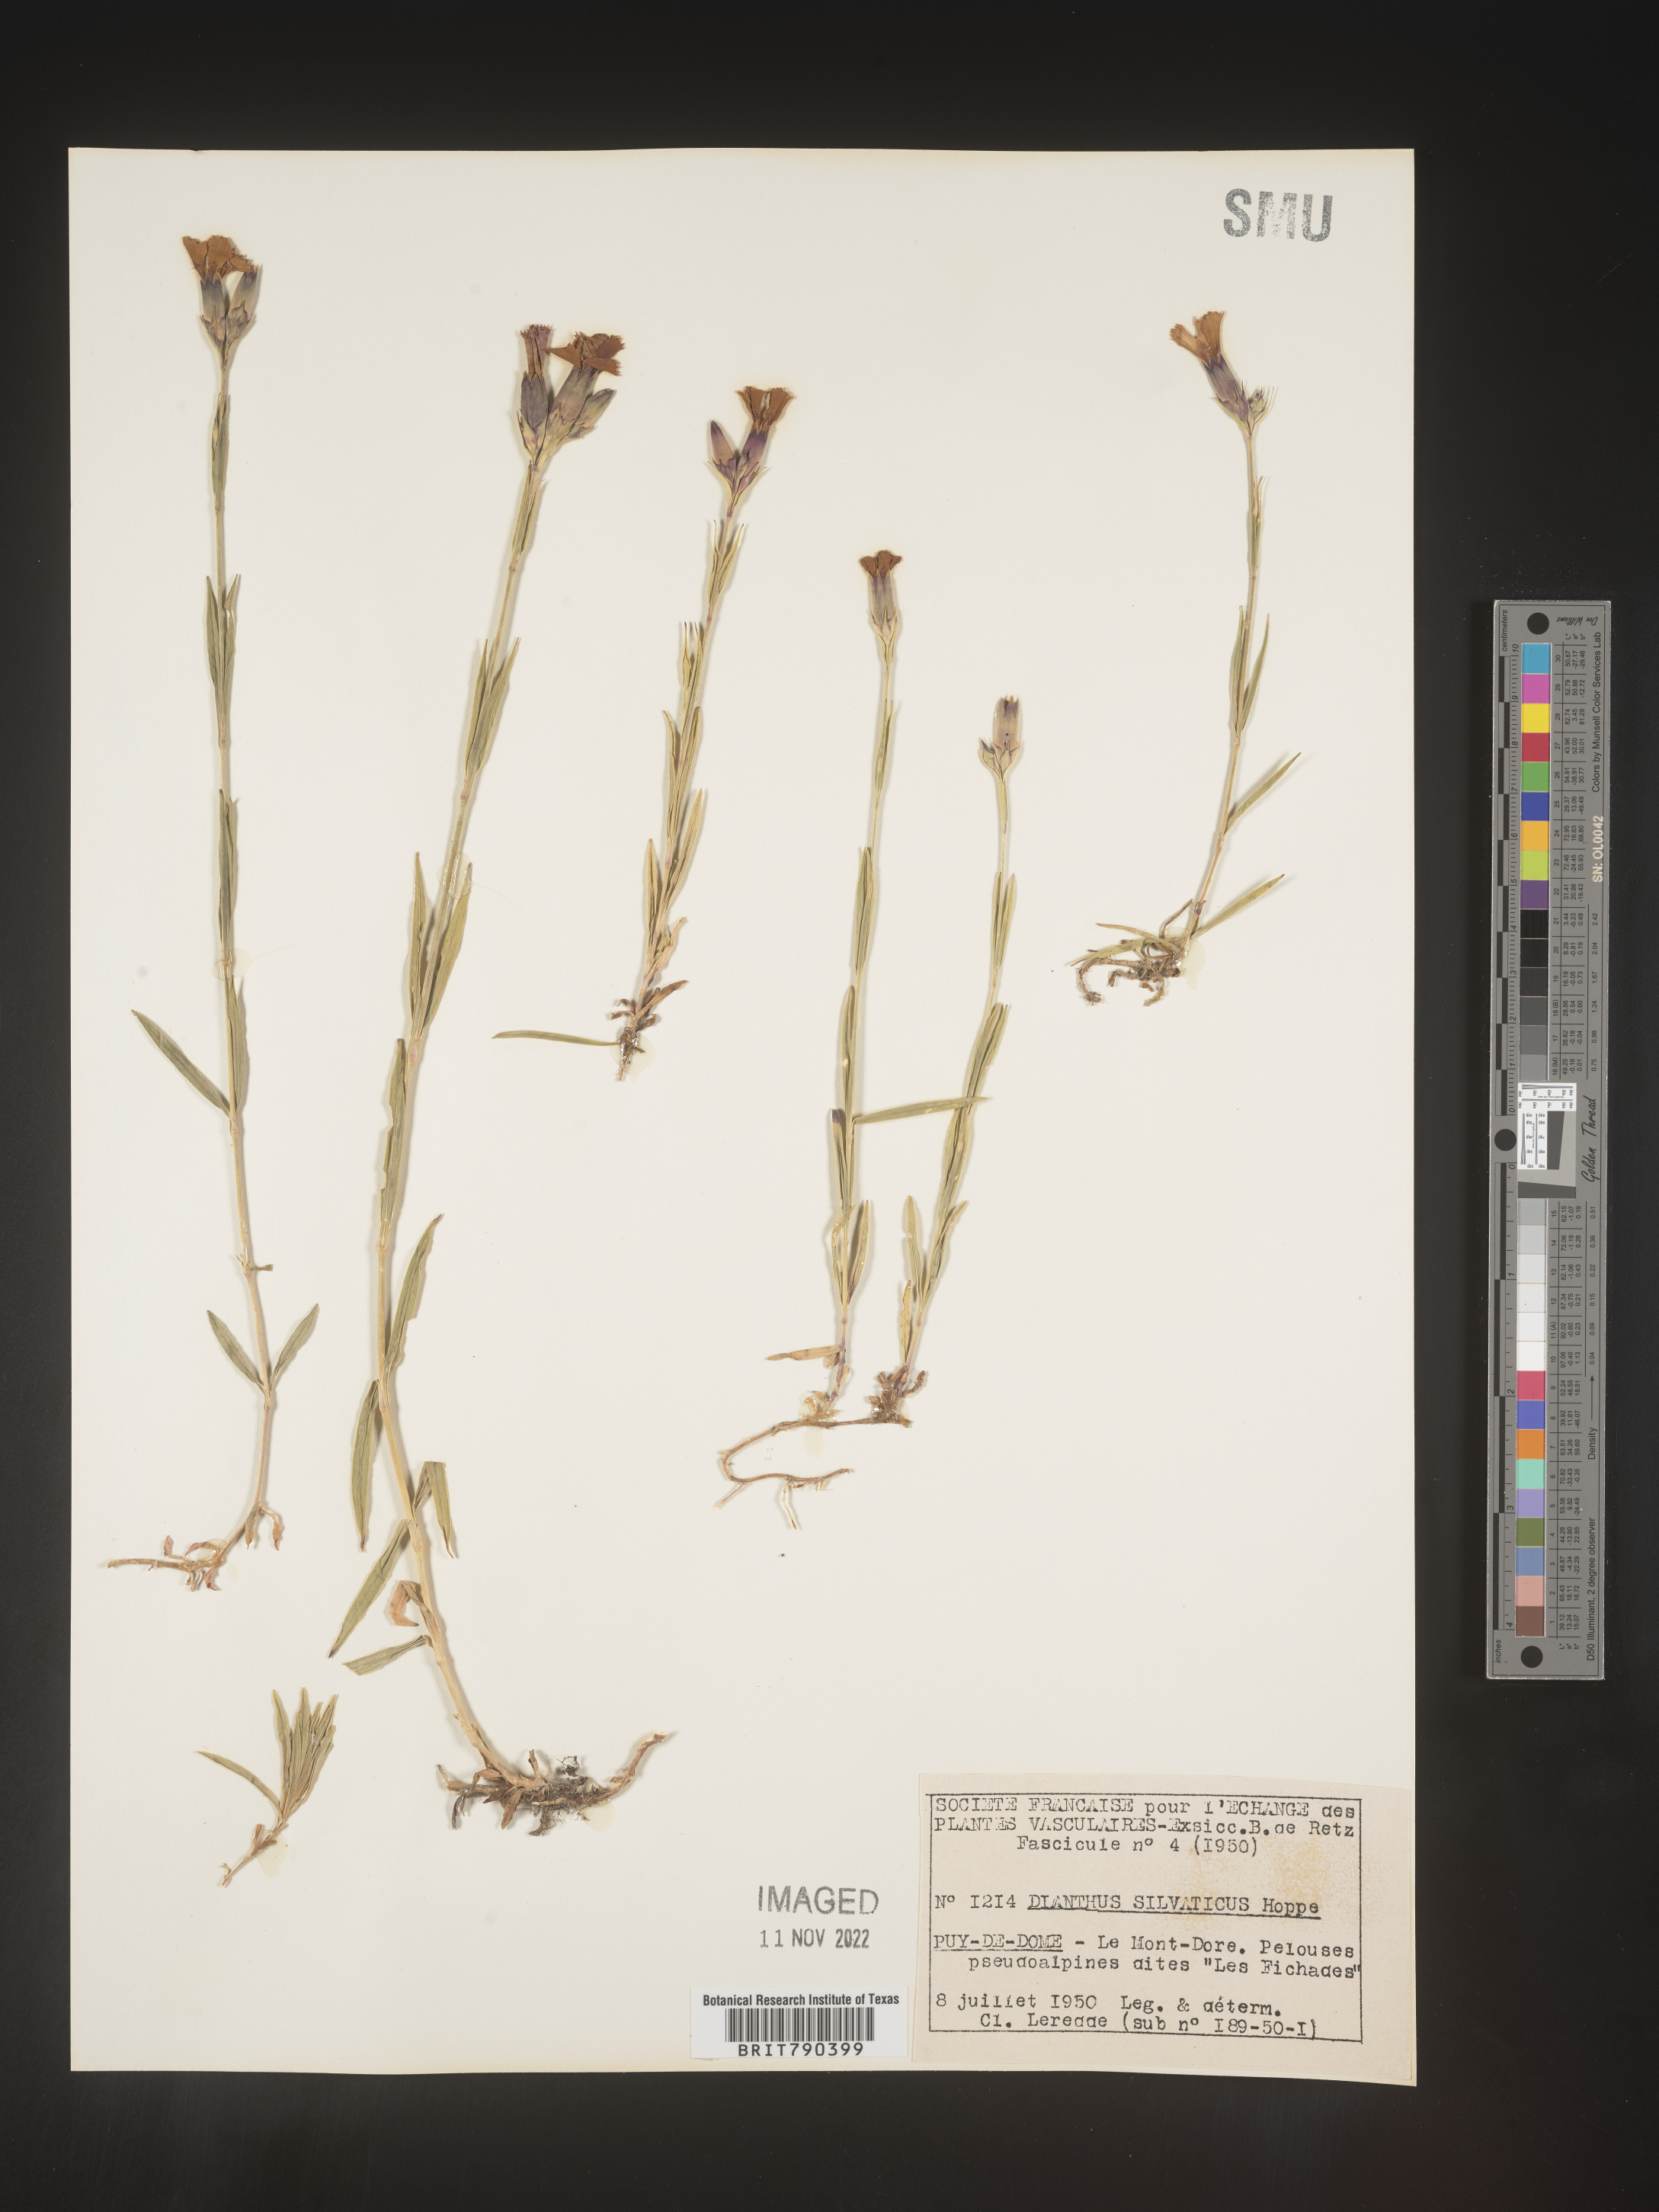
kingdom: Plantae
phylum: Tracheophyta
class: Magnoliopsida
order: Caryophyllales
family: Caryophyllaceae
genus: Dianthus
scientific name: Dianthus
